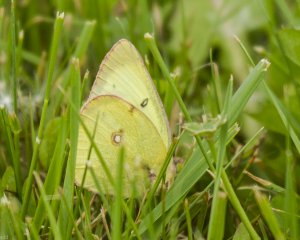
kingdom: Animalia
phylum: Arthropoda
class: Insecta
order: Lepidoptera
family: Pieridae
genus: Colias
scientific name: Colias philodice
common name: Clouded Sulphur
